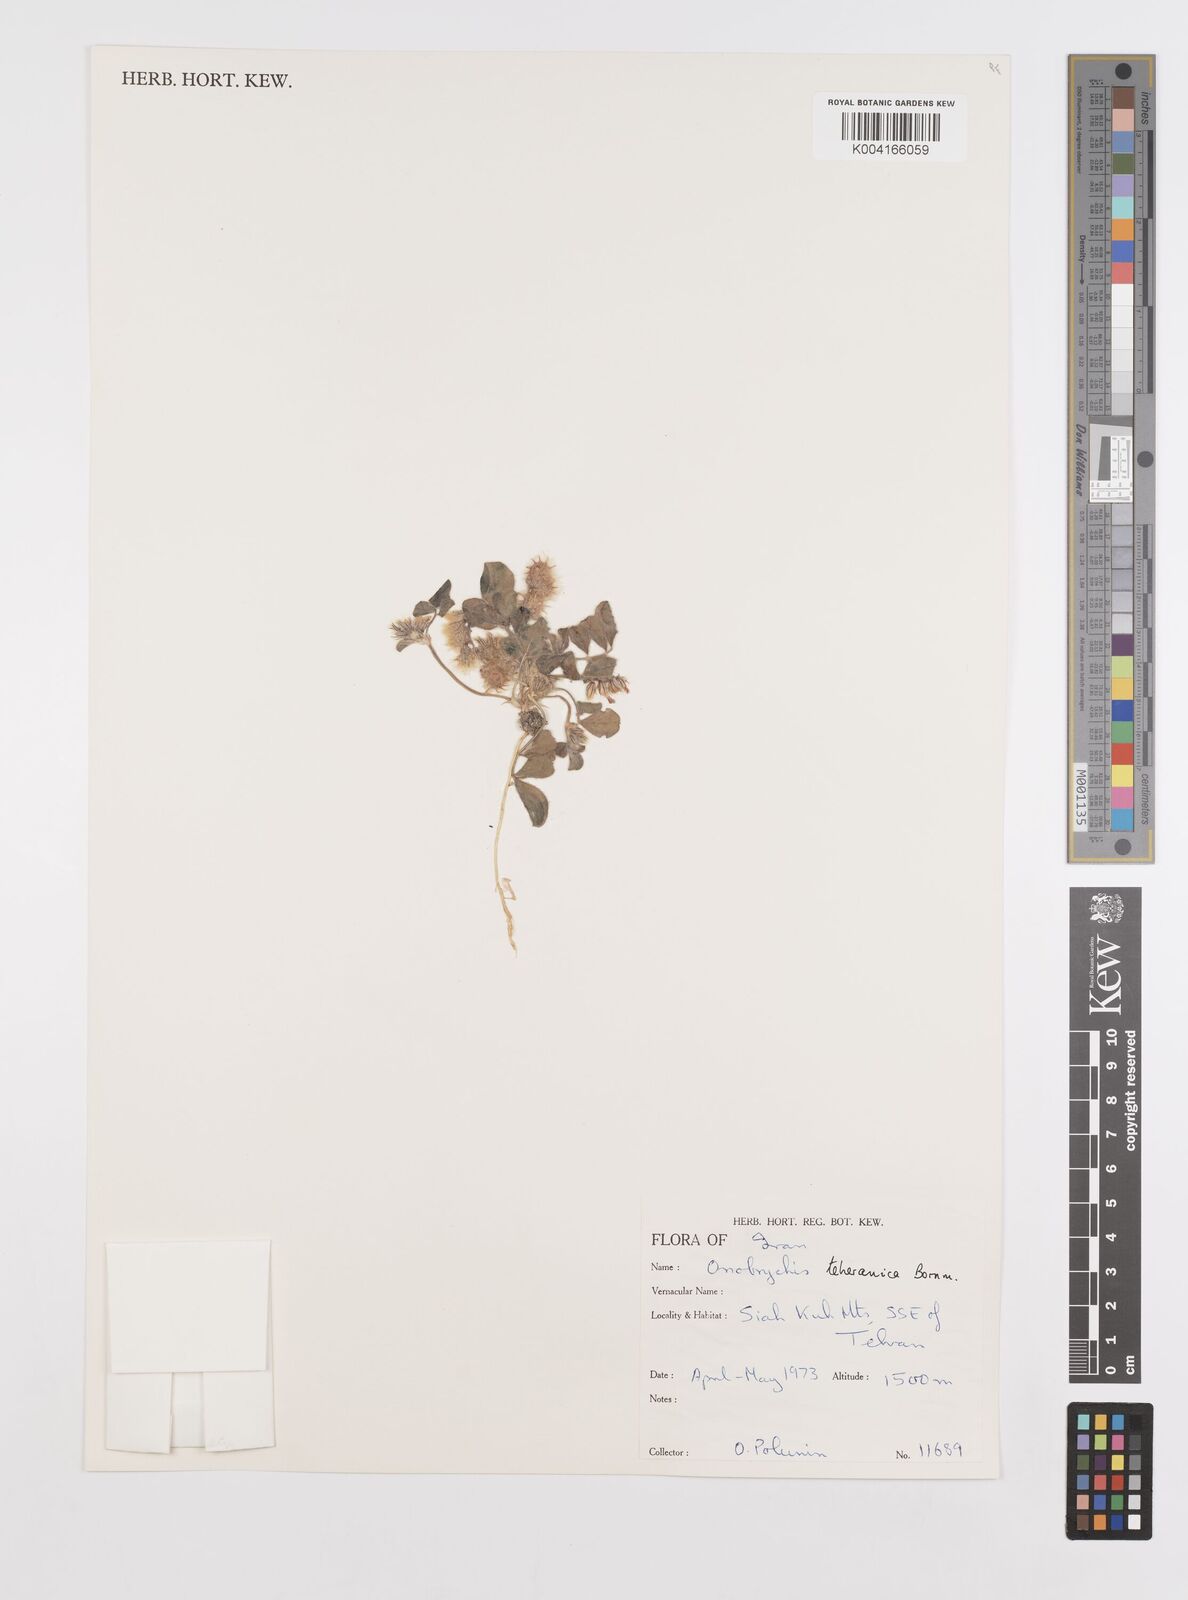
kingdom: Plantae
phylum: Tracheophyta
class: Magnoliopsida
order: Fabales
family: Fabaceae
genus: Onobrychis
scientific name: Onobrychis aucheri
